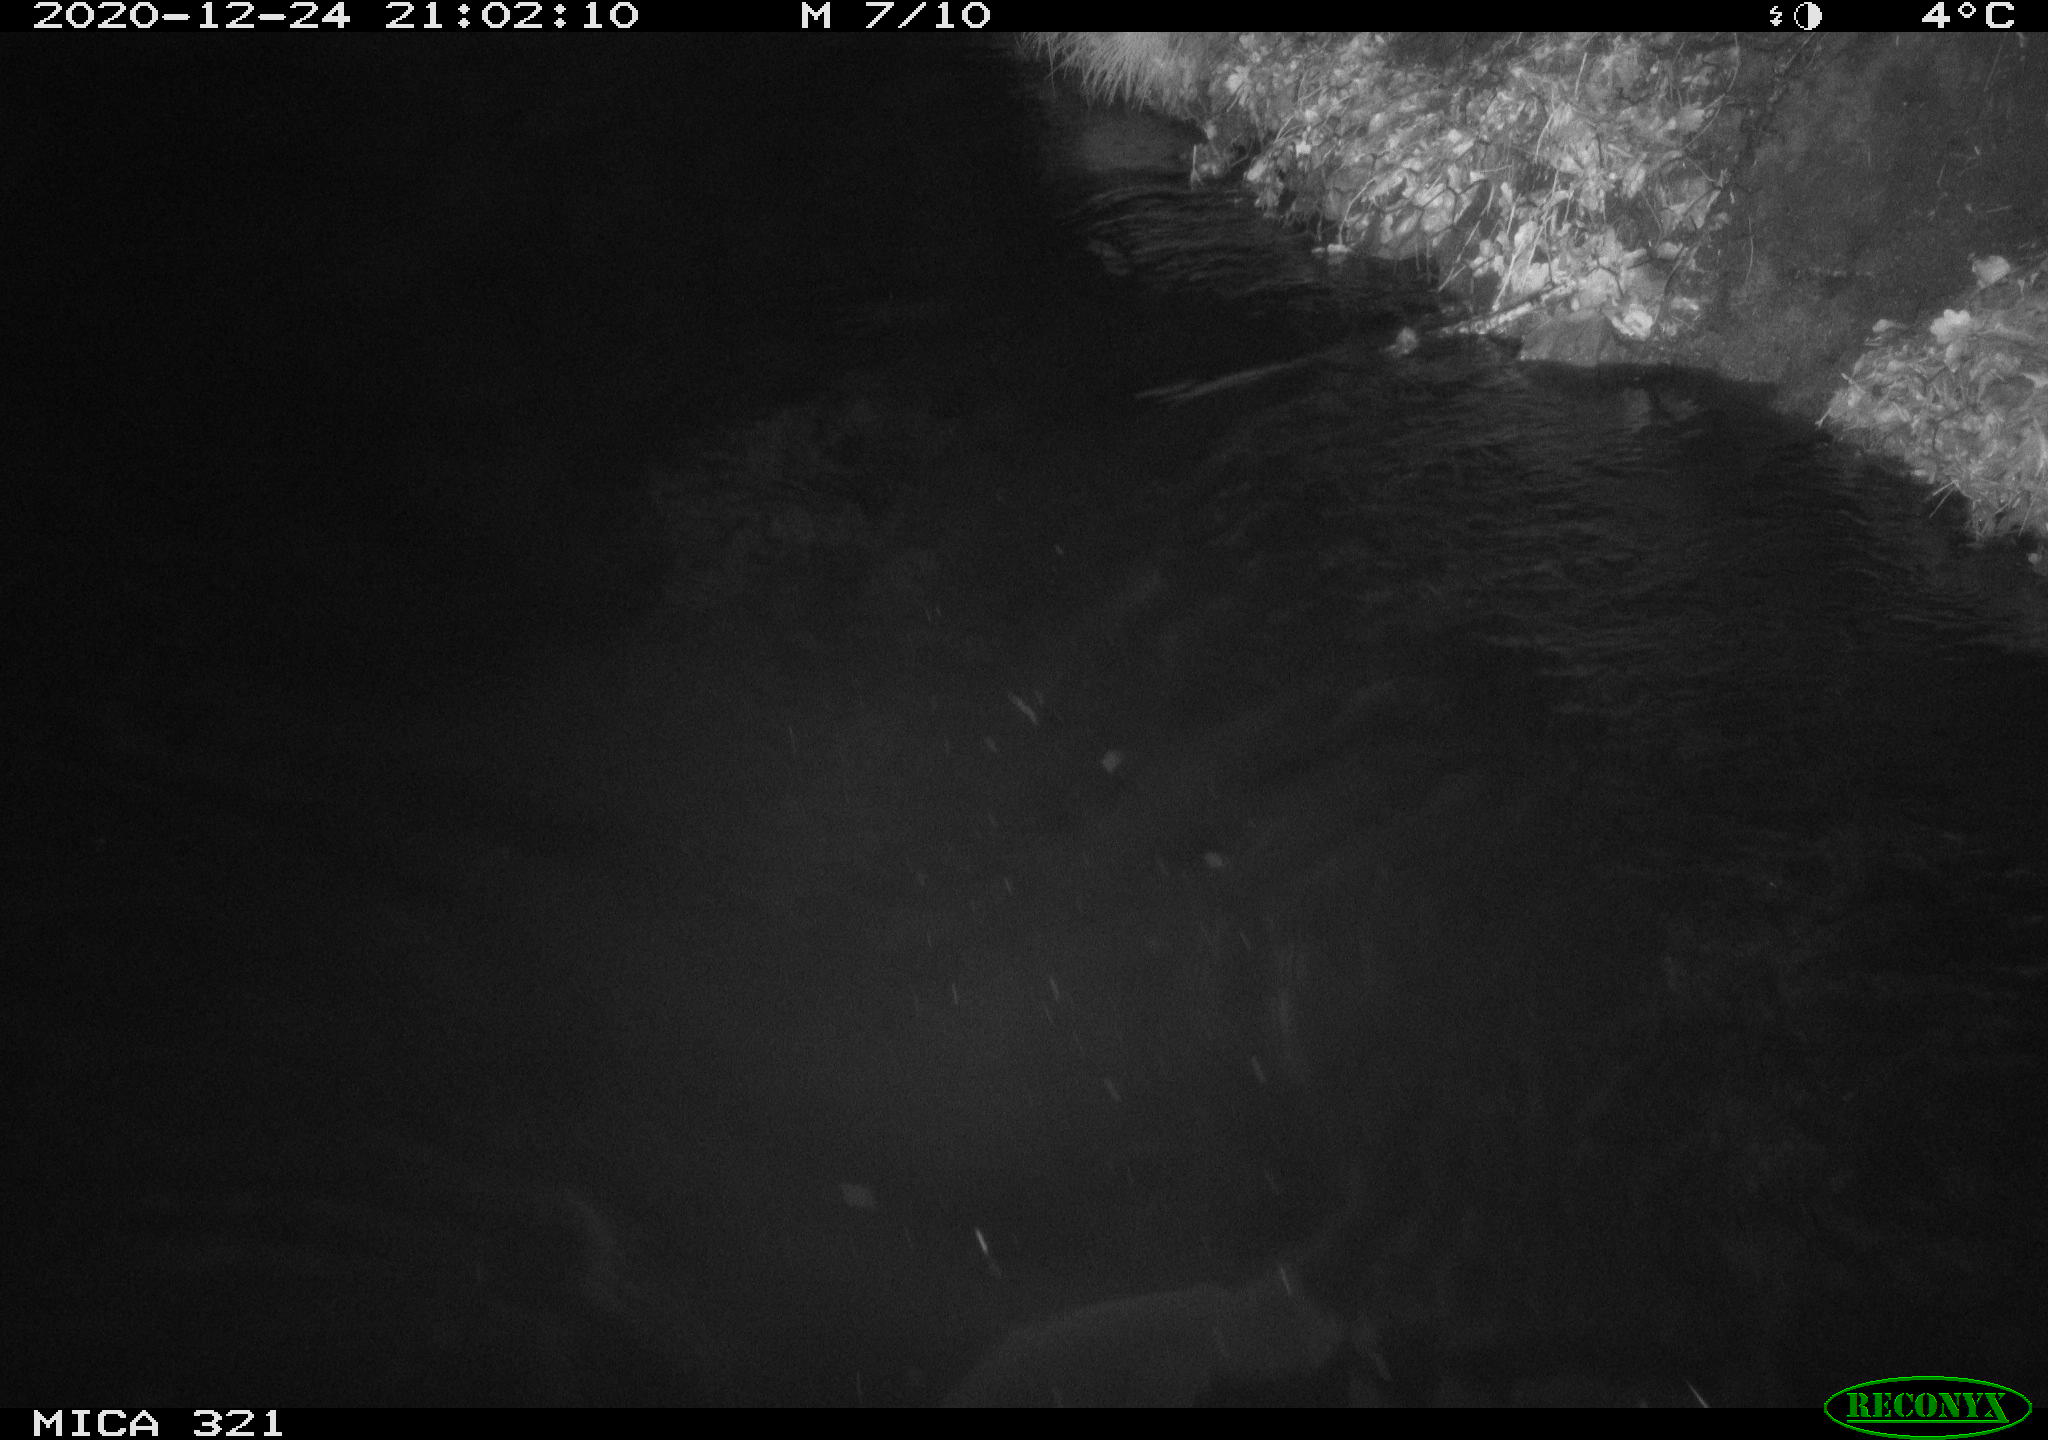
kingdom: Animalia
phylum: Chordata
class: Aves
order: Anseriformes
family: Anatidae
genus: Anas
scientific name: Anas platyrhynchos
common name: Mallard
